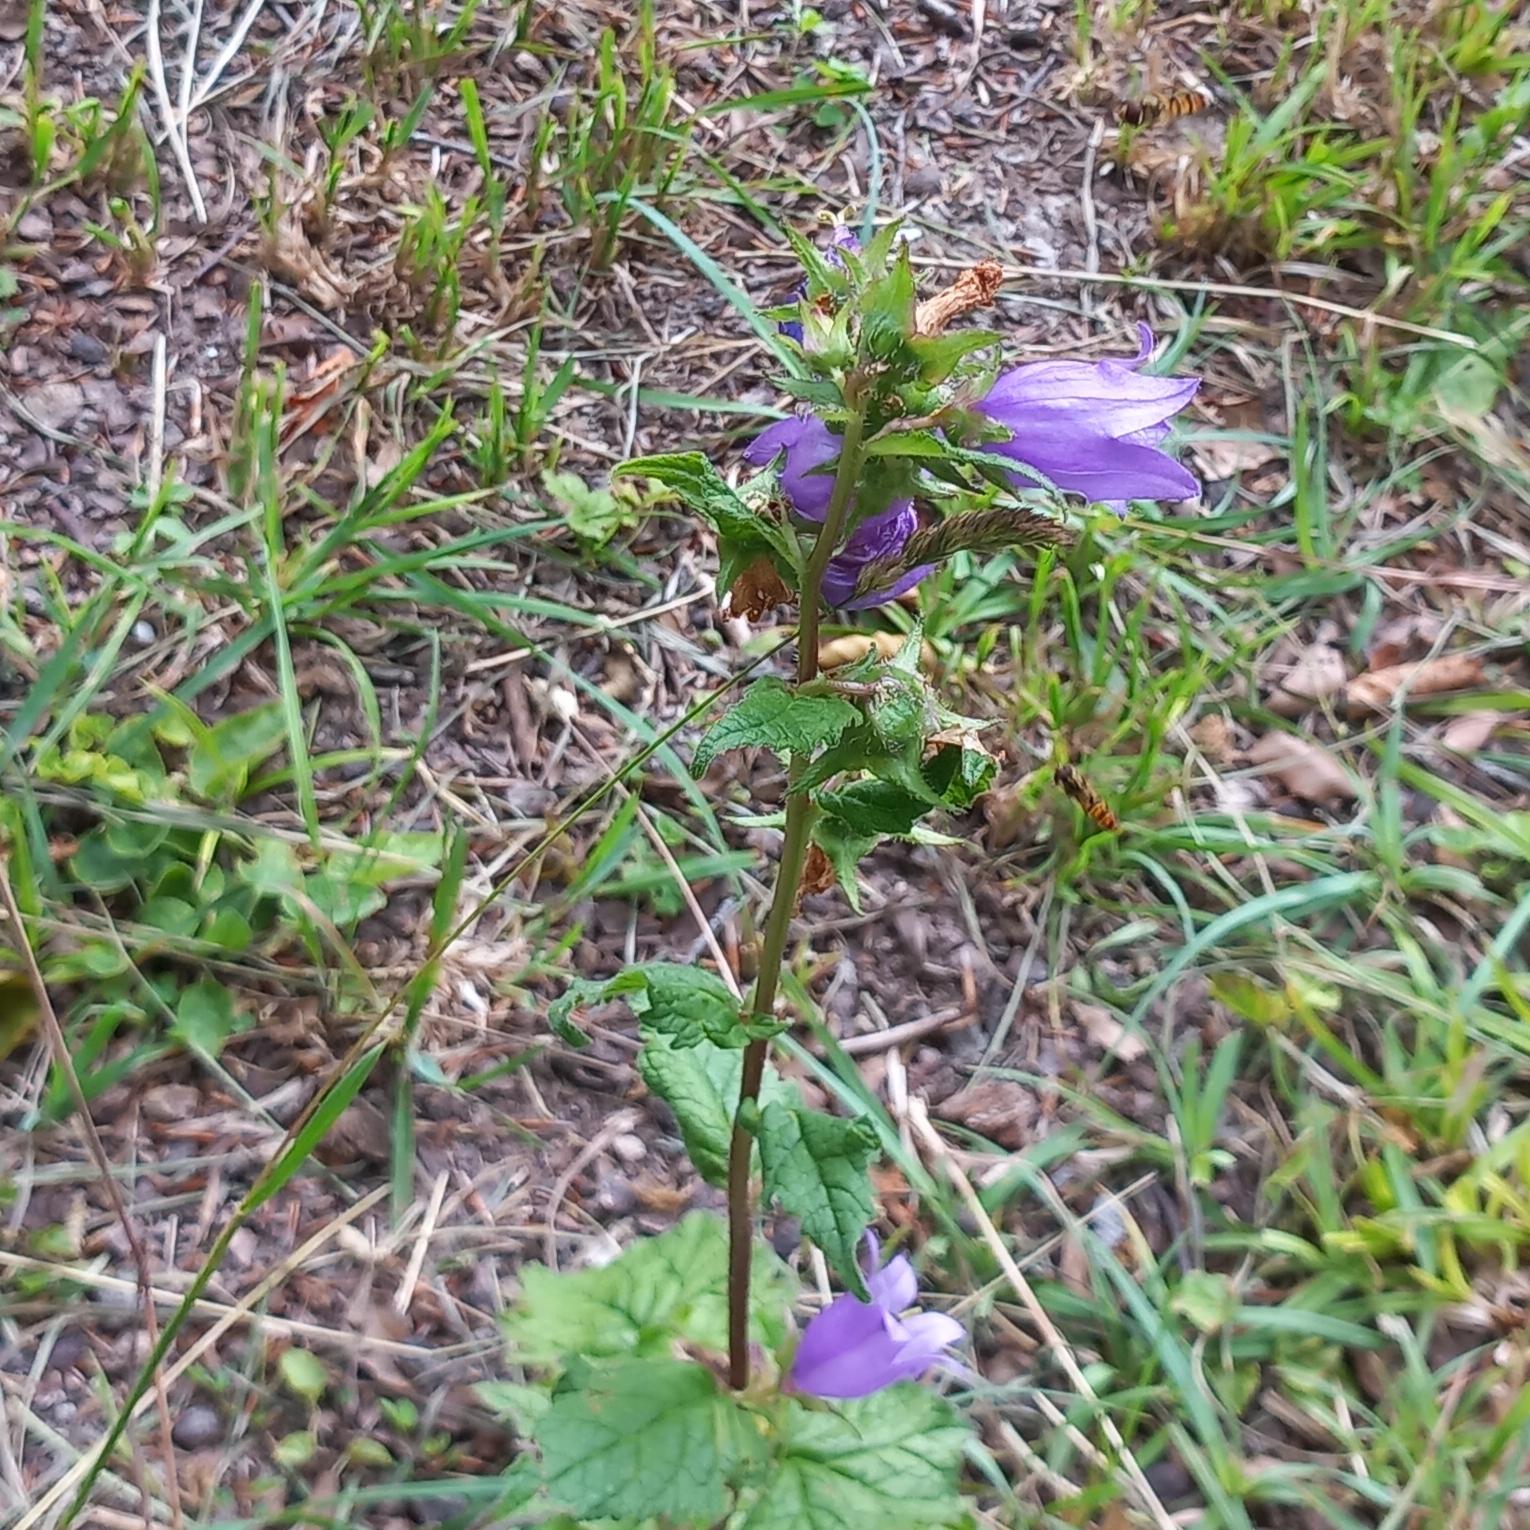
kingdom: Plantae
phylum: Tracheophyta
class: Magnoliopsida
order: Asterales
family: Campanulaceae
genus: Campanula
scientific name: Campanula trachelium
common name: Nælde-klokke
